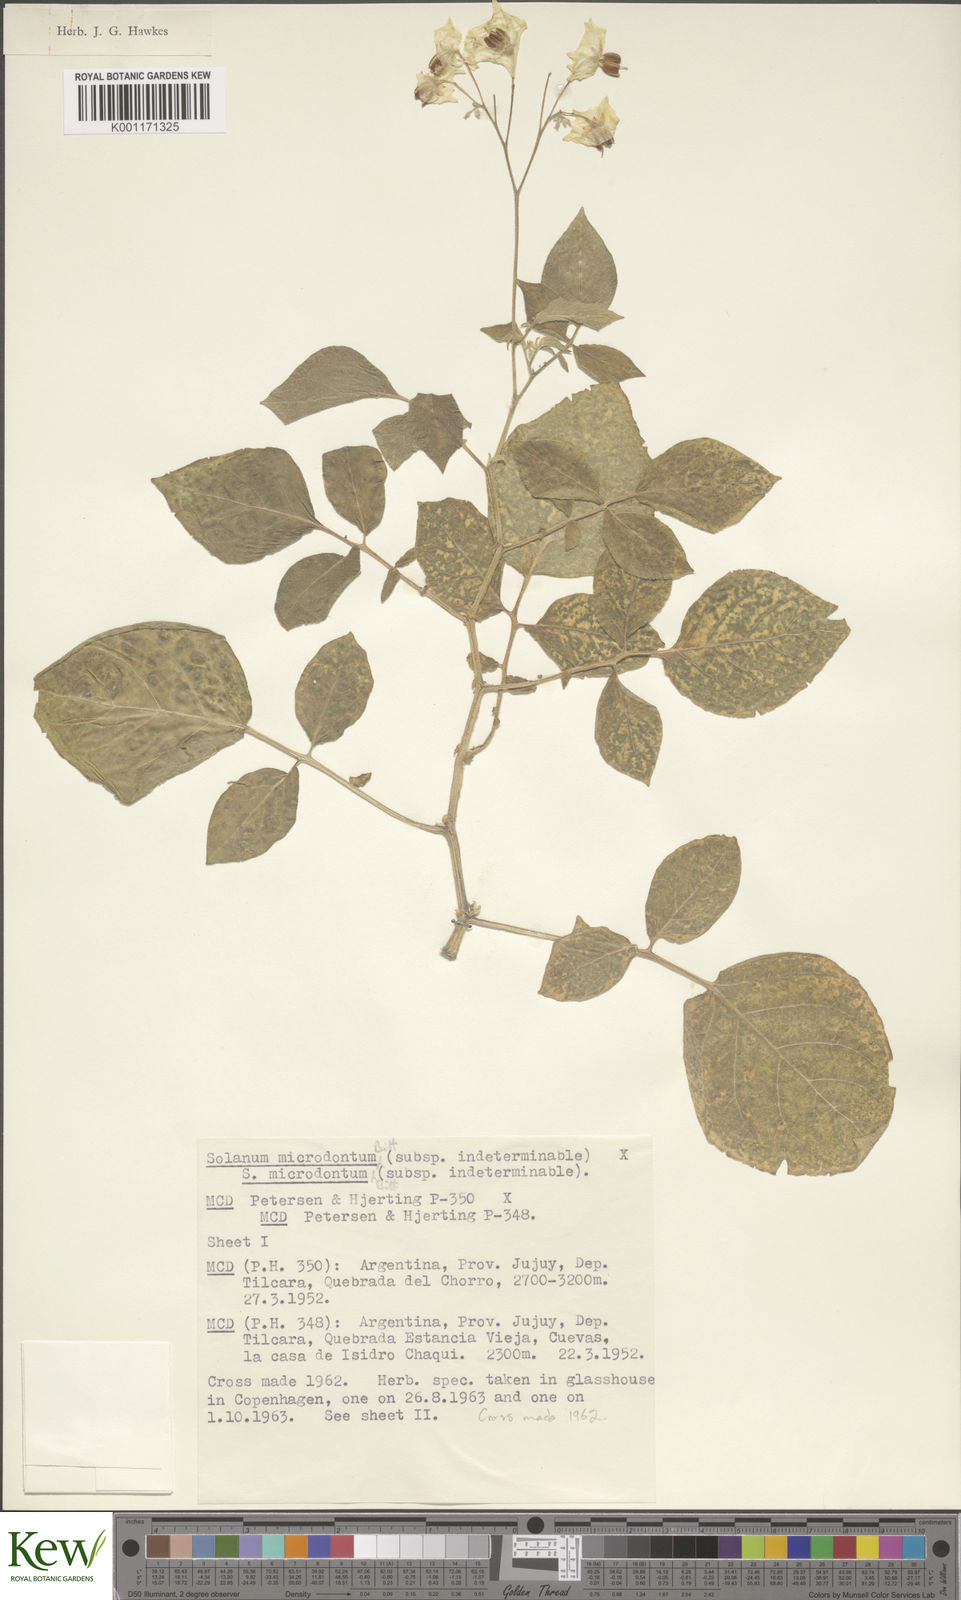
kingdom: Plantae
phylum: Tracheophyta
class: Magnoliopsida
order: Solanales
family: Solanaceae
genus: Solanum
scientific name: Solanum microdontum
